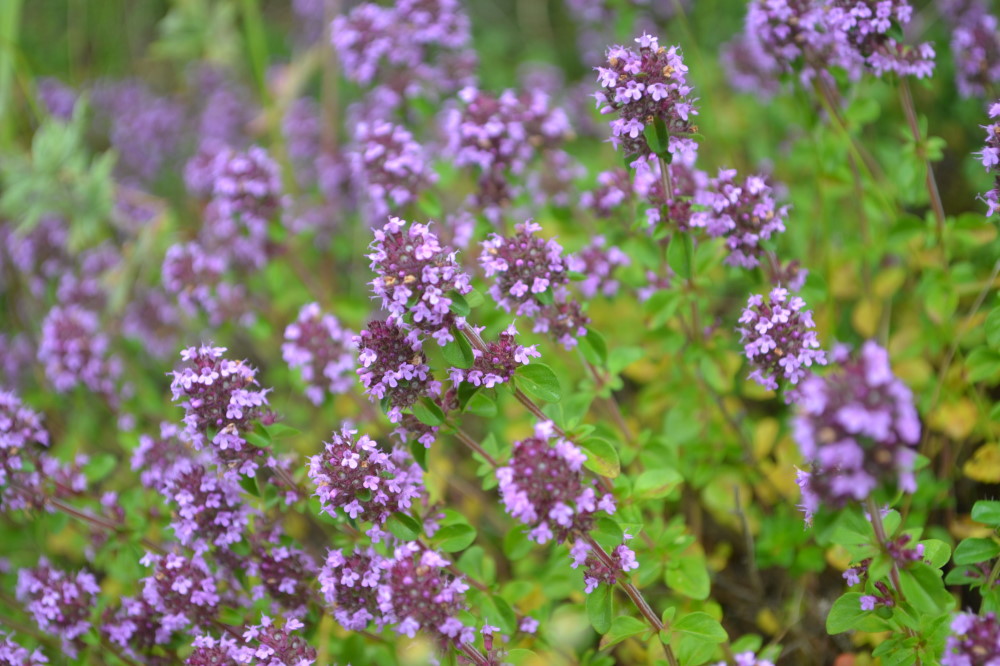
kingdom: Plantae
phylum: Tracheophyta
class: Magnoliopsida
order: Lamiales
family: Lamiaceae
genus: Thymus
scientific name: Thymus
